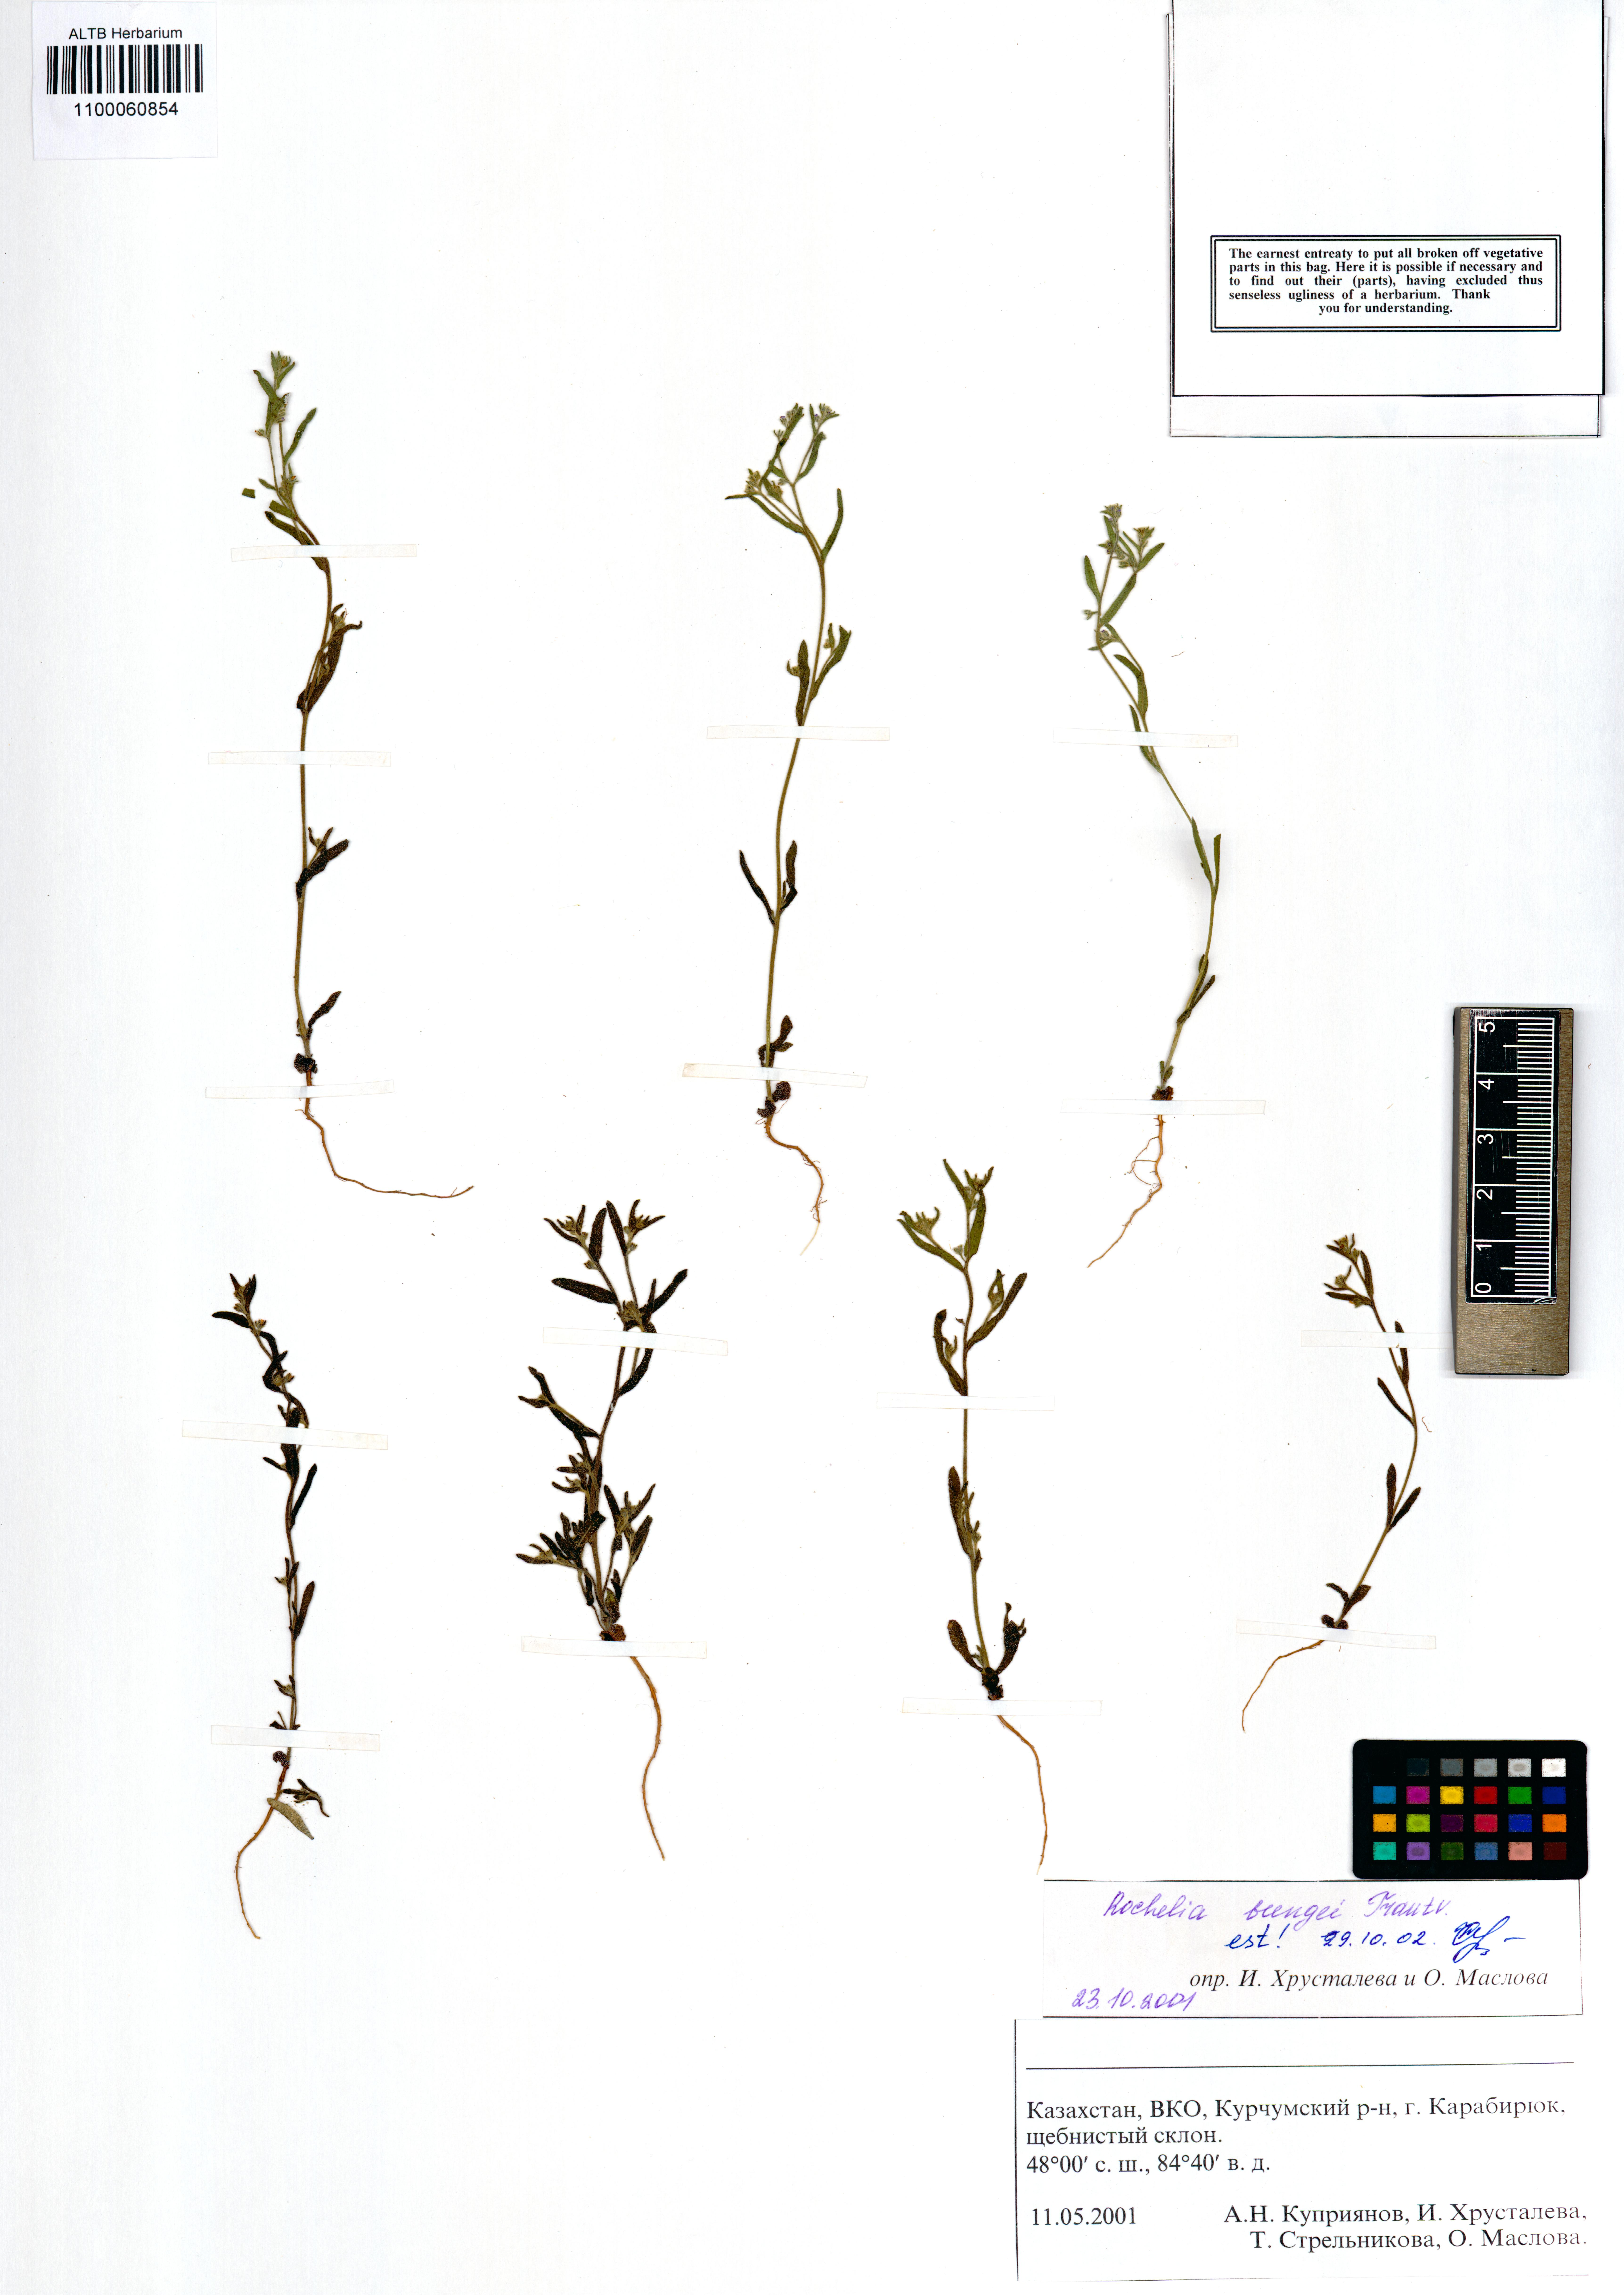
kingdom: Plantae
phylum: Tracheophyta
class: Magnoliopsida
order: Boraginales
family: Boraginaceae
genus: Rochelia
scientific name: Rochelia bungei
